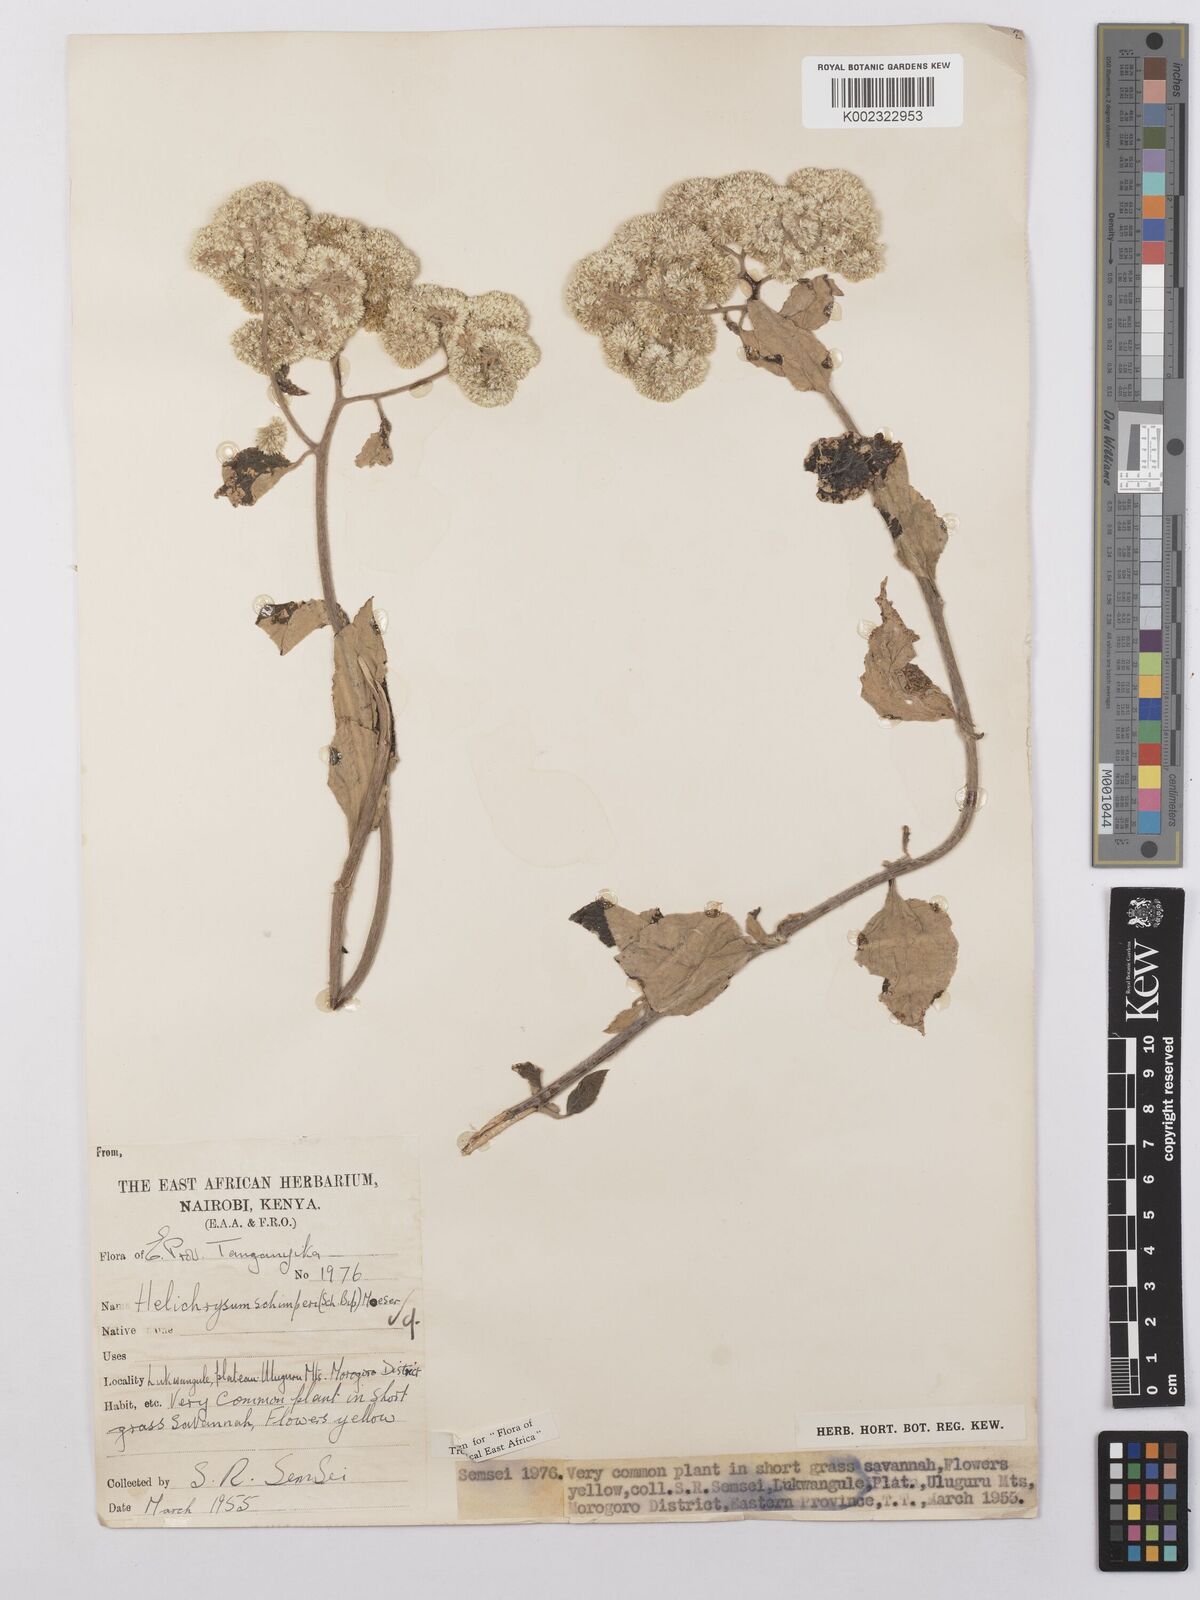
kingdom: Plantae
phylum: Tracheophyta
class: Magnoliopsida
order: Asterales
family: Asteraceae
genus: Helichrysum
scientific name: Helichrysum schimperi
